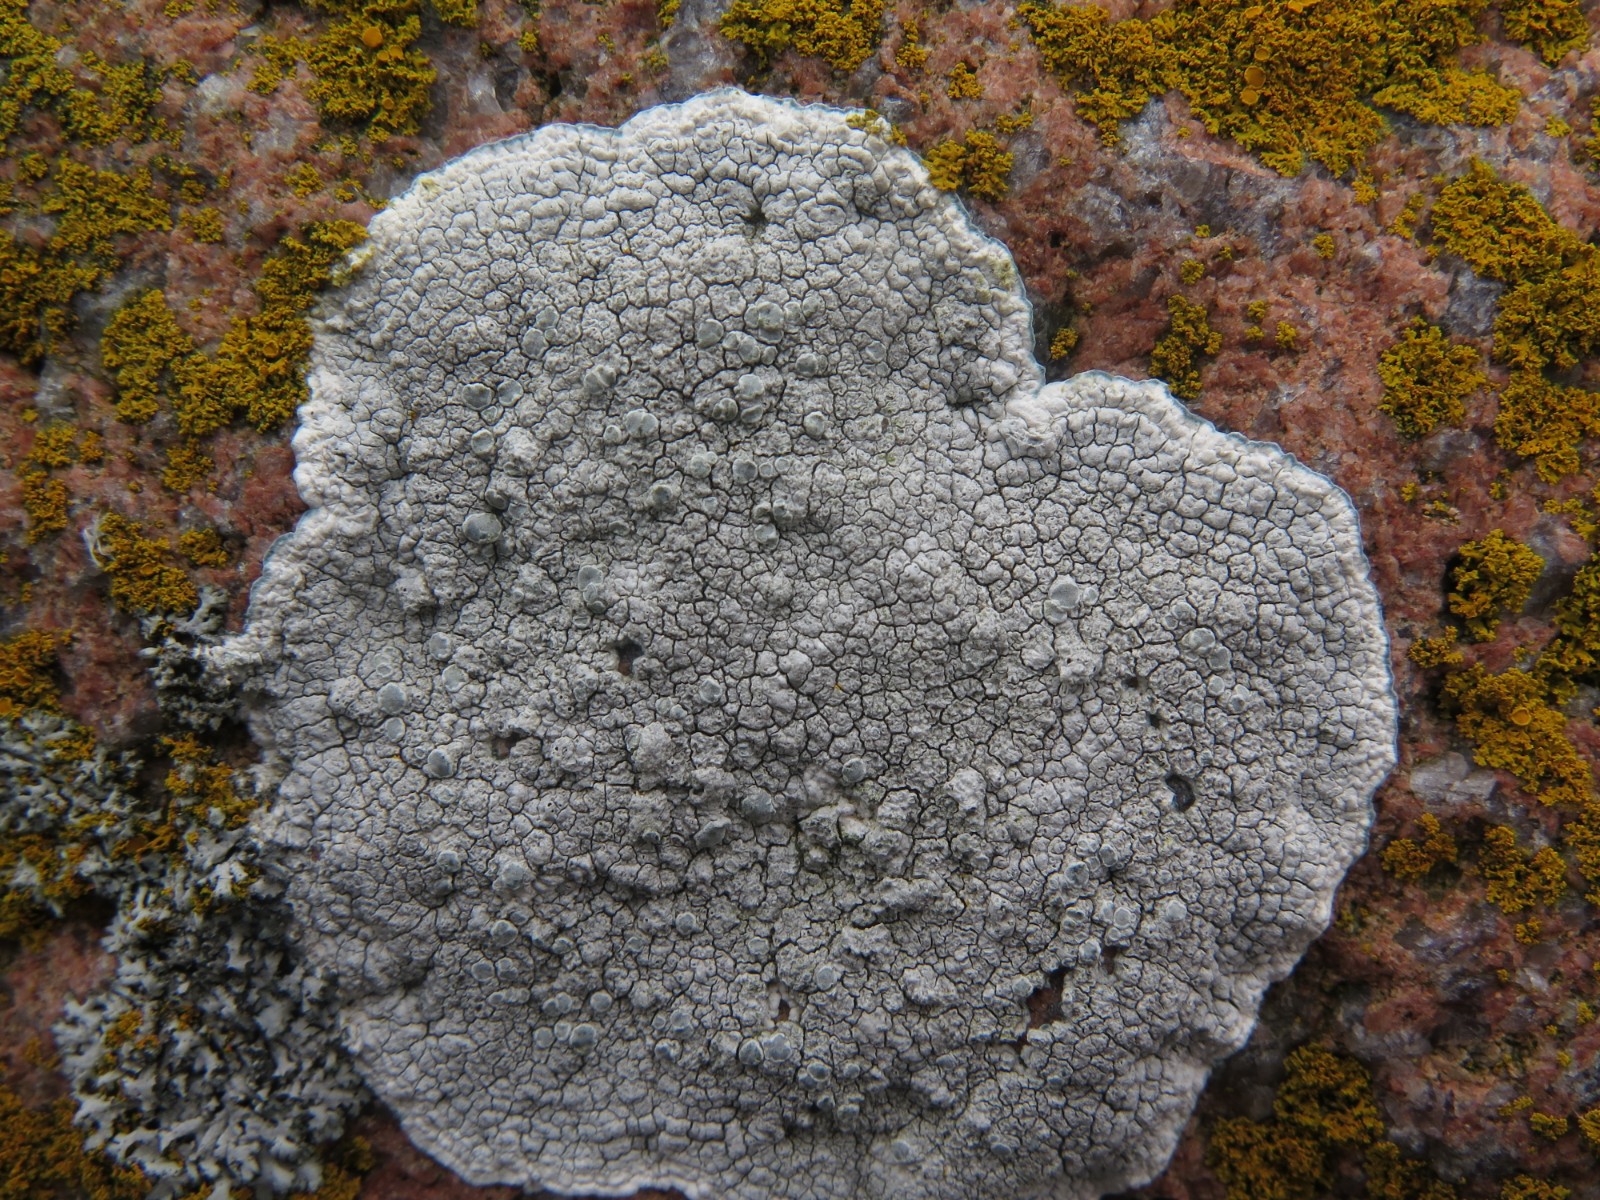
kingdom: Fungi
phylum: Ascomycota
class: Lecanoromycetes
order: Lecanorales
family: Lecanoraceae
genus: Glaucomaria
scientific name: Glaucomaria rupicola
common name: stengærde-kantskivelav
